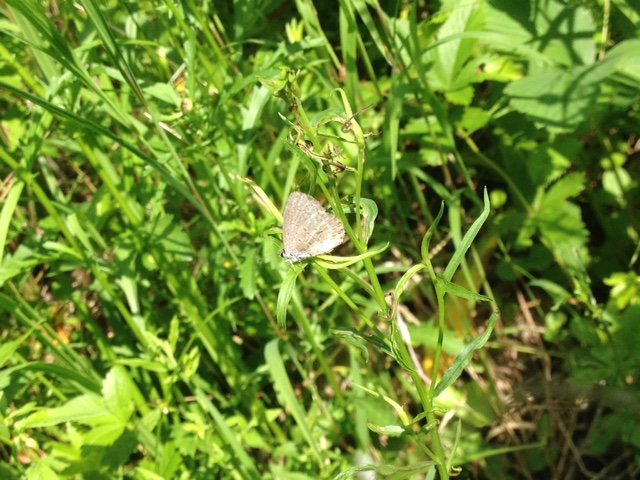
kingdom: Animalia
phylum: Arthropoda
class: Insecta
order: Lepidoptera
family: Lycaenidae
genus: Celastrina
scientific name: Celastrina lucia
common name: Northern Spring Azure
